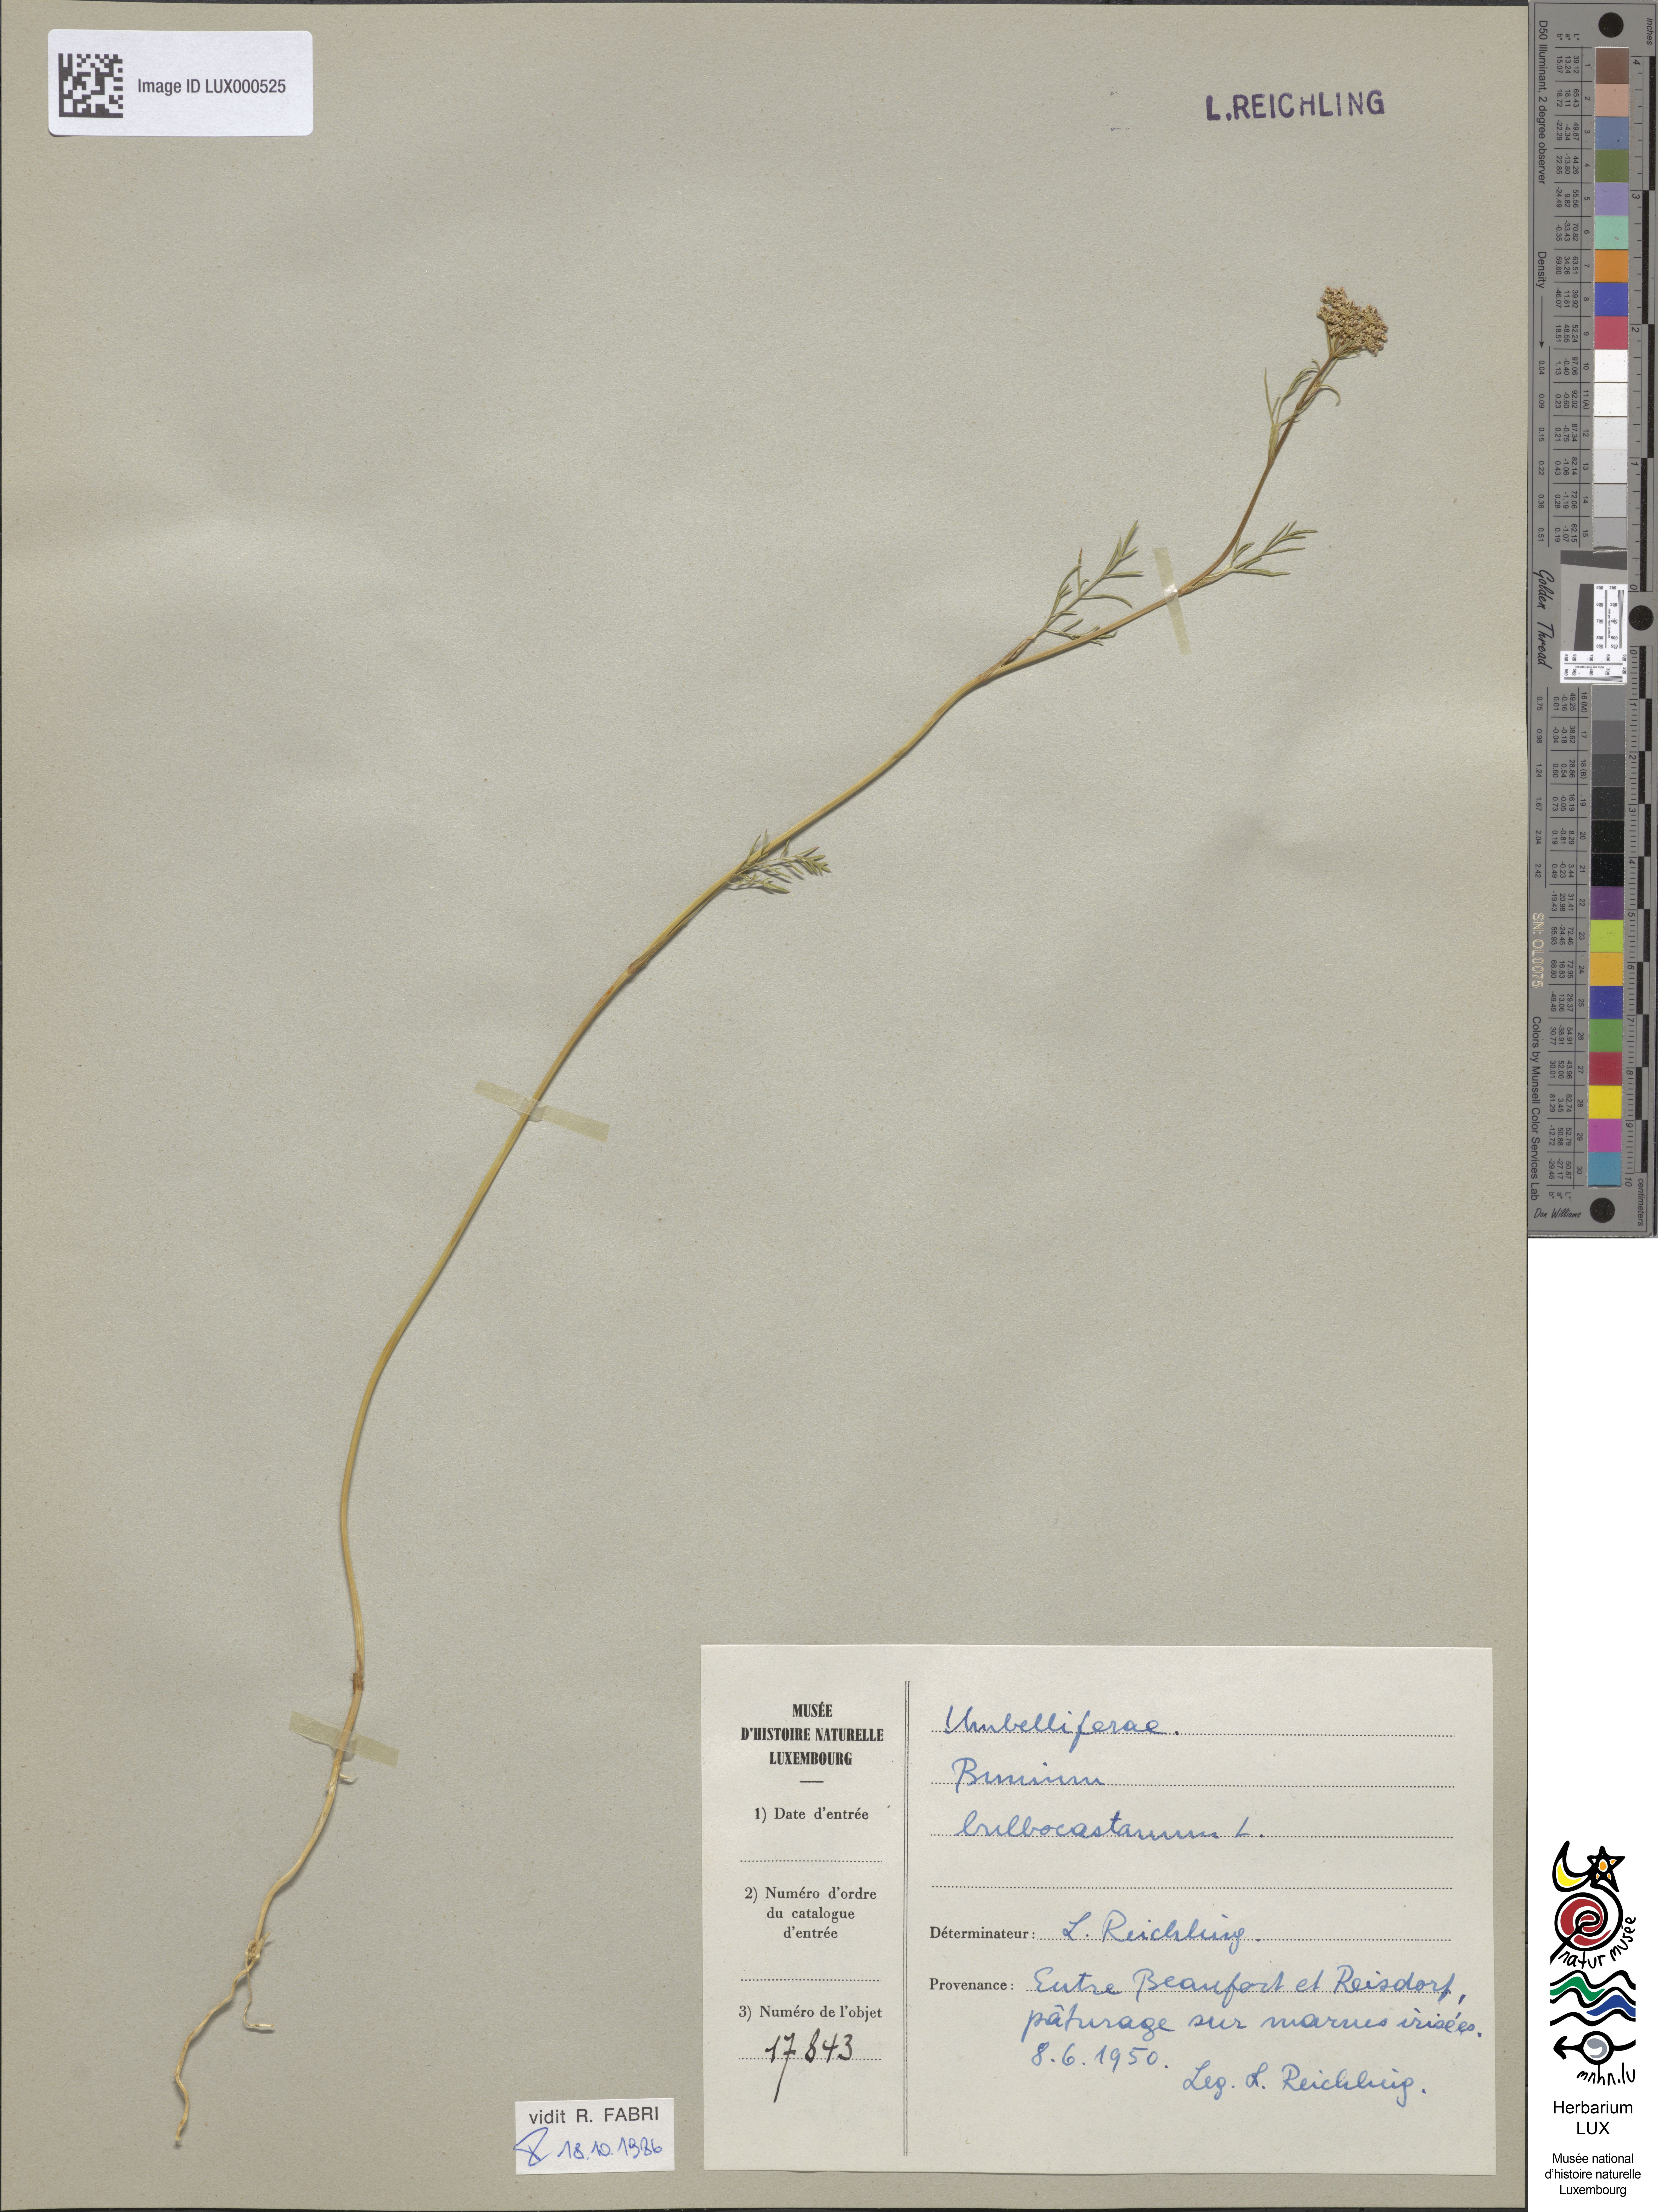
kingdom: Plantae
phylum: Tracheophyta
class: Magnoliopsida
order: Apiales
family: Apiaceae
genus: Bunium
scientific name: Bunium bulbocastanum
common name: Great pignut
